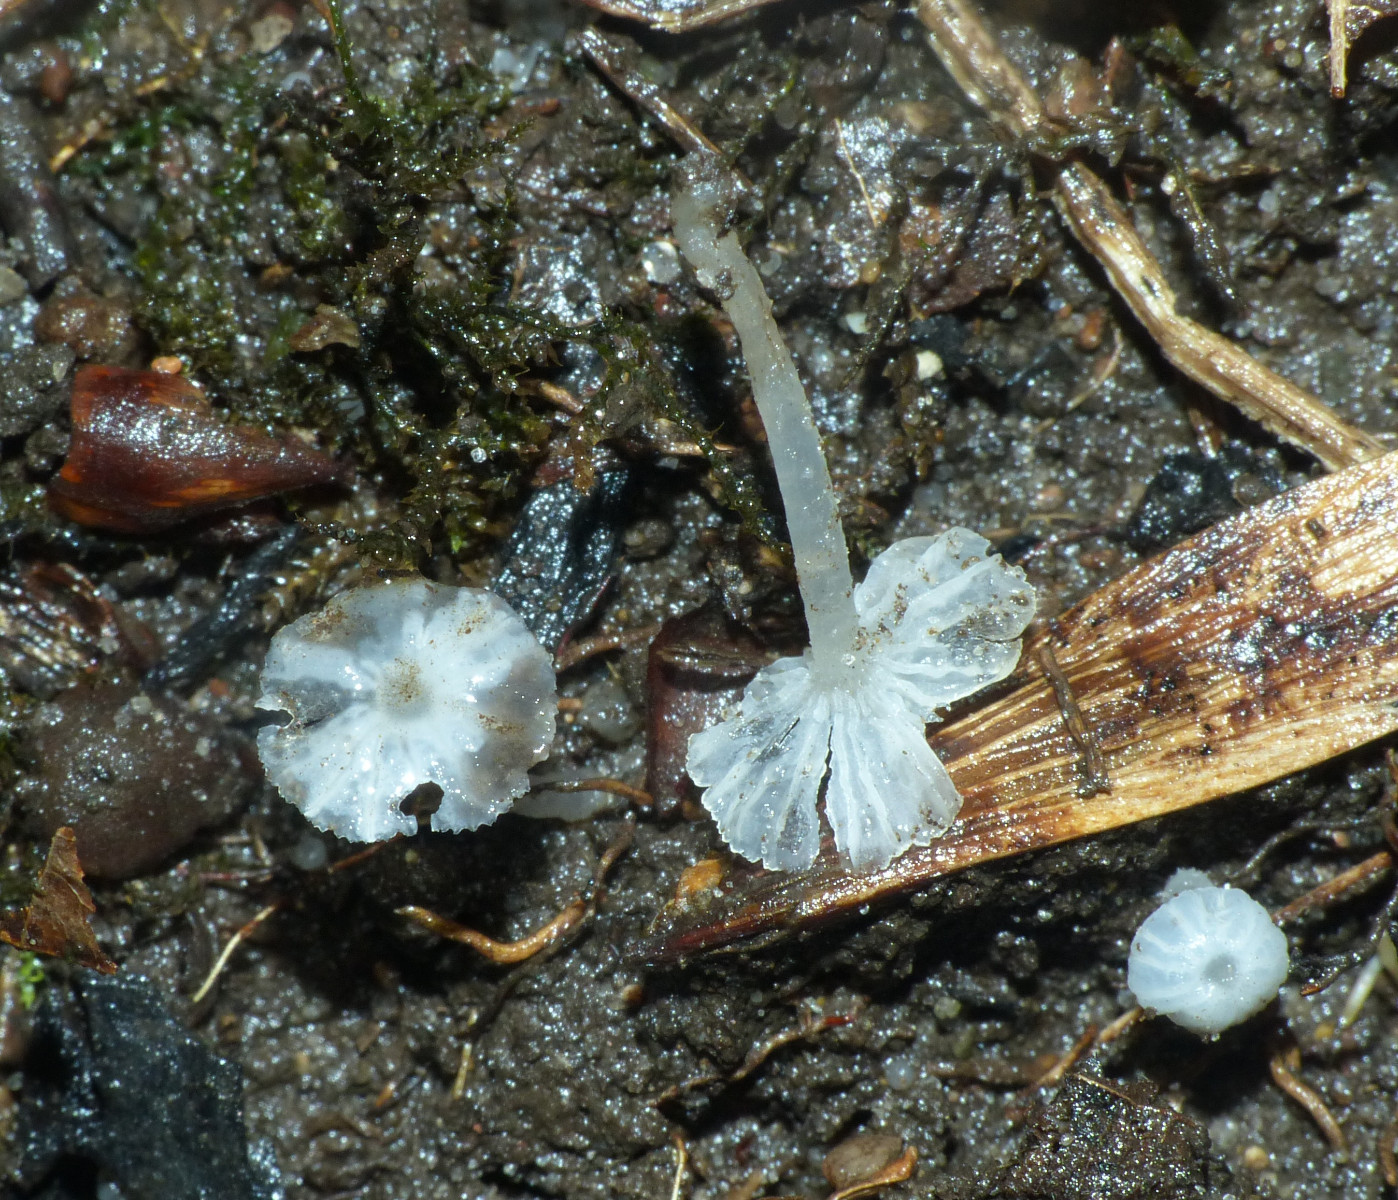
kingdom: Fungi
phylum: Basidiomycota
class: Agaricomycetes
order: Agaricales
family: Tricholomataceae
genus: Delicatula
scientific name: Delicatula integrella
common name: slørhuesvamp
